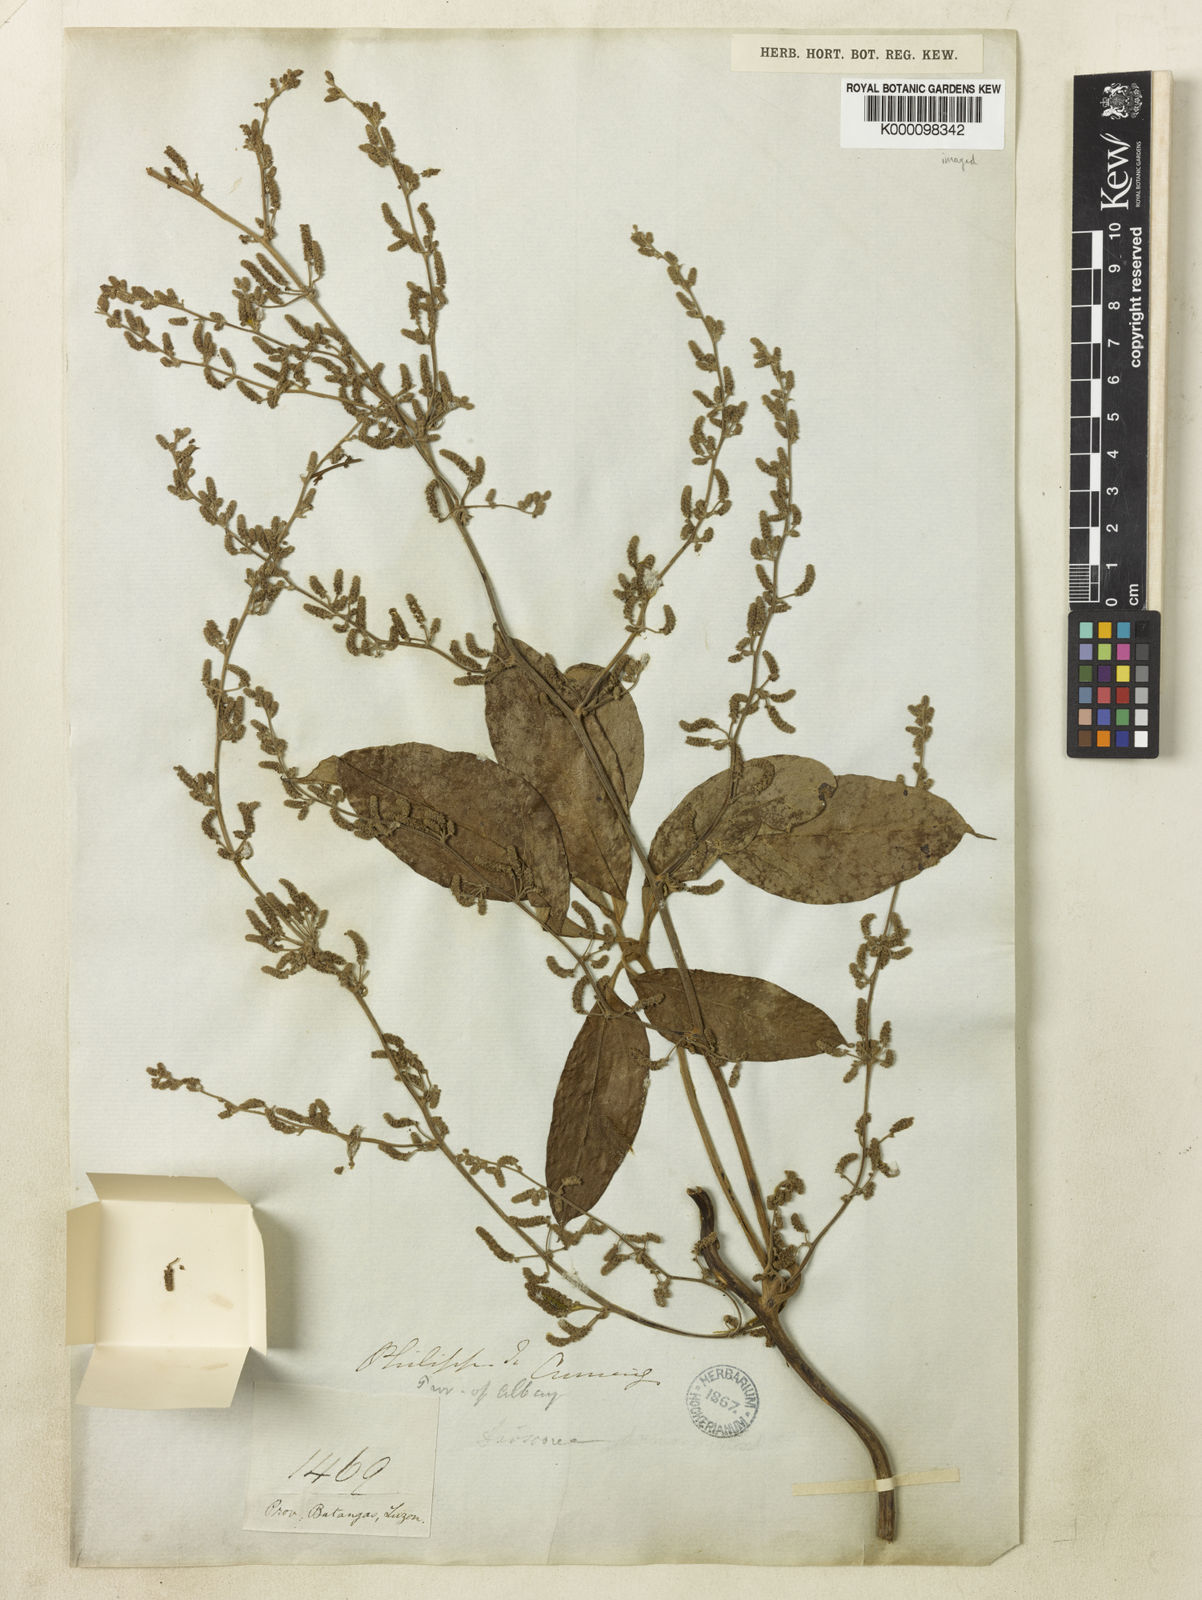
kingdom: Plantae
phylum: Tracheophyta
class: Liliopsida
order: Dioscoreales
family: Dioscoreaceae
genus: Dioscorea
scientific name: Dioscorea cumingii
